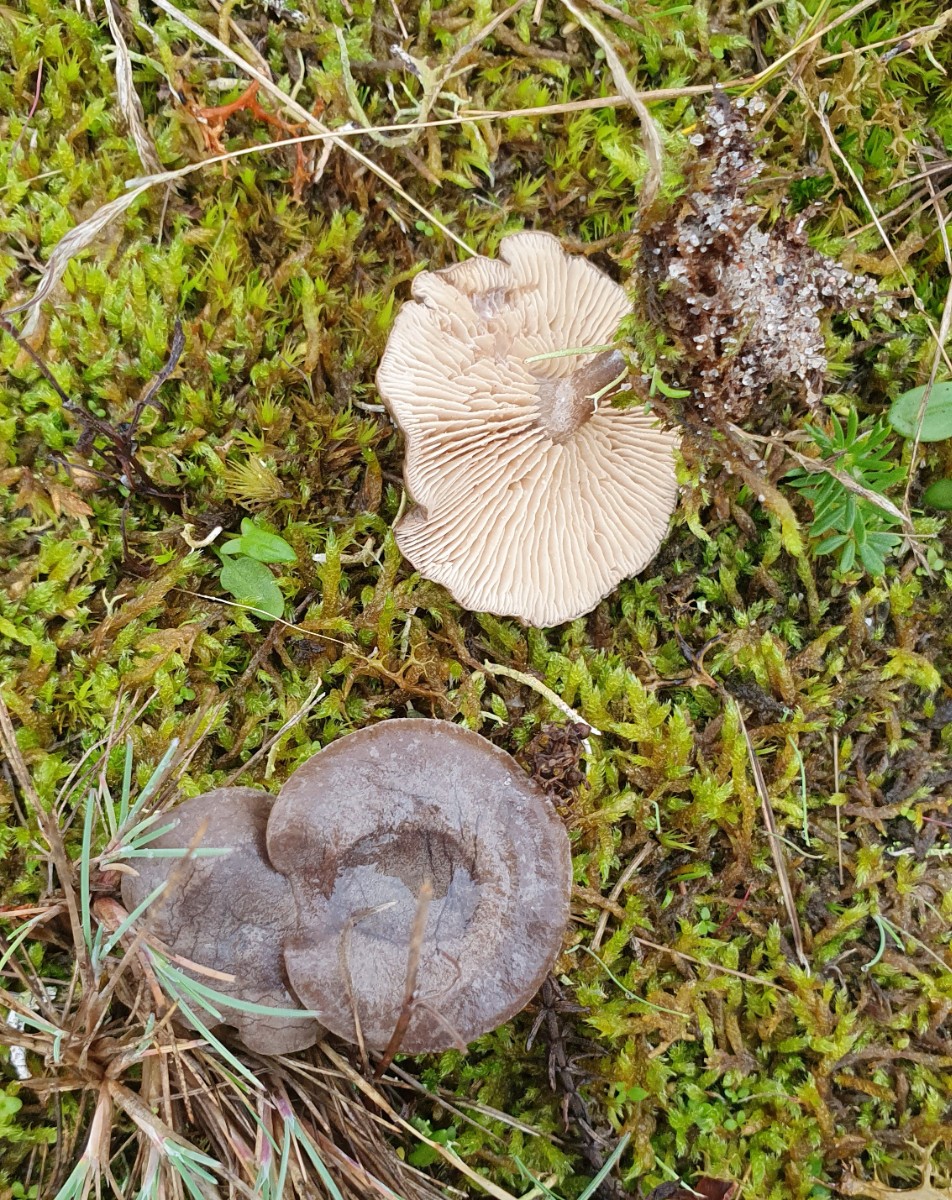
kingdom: Fungi
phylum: Basidiomycota
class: Agaricomycetes
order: Agaricales
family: Entolomataceae
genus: Rhodocybe
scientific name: Rhodocybe
